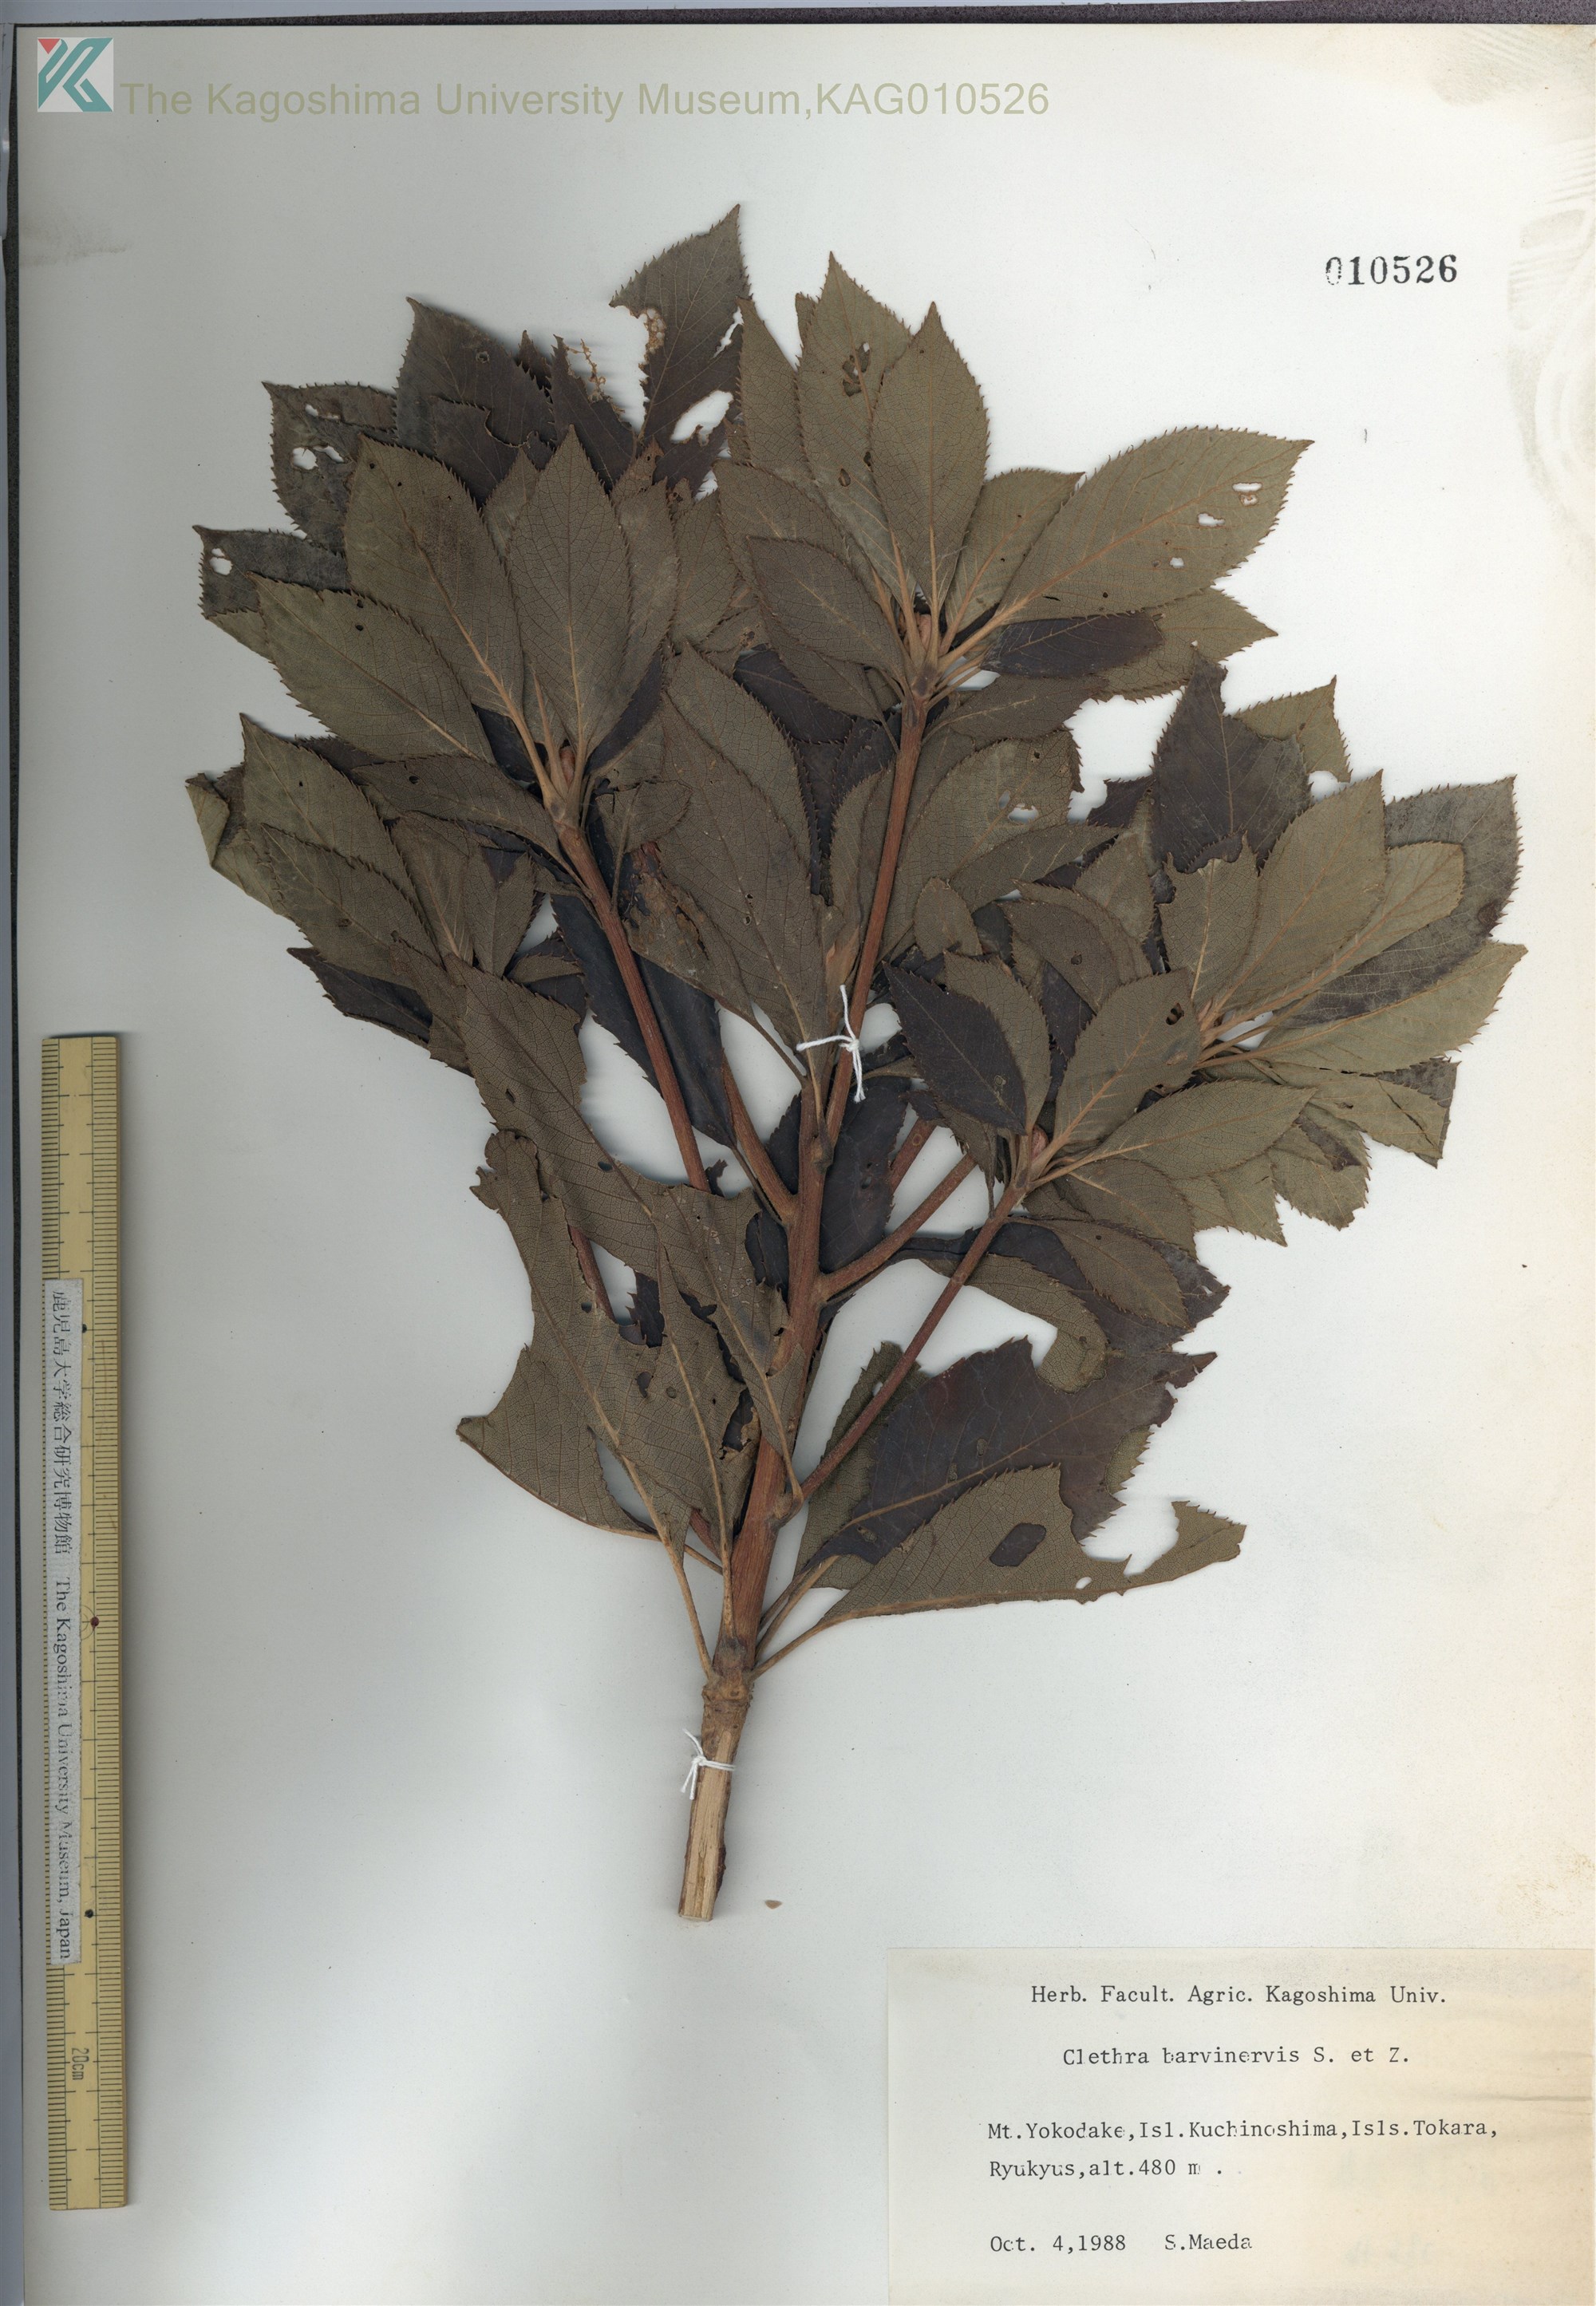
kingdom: Plantae
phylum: Tracheophyta
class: Magnoliopsida
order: Ericales
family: Clethraceae
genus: Clethra
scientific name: Clethra barbinervis
